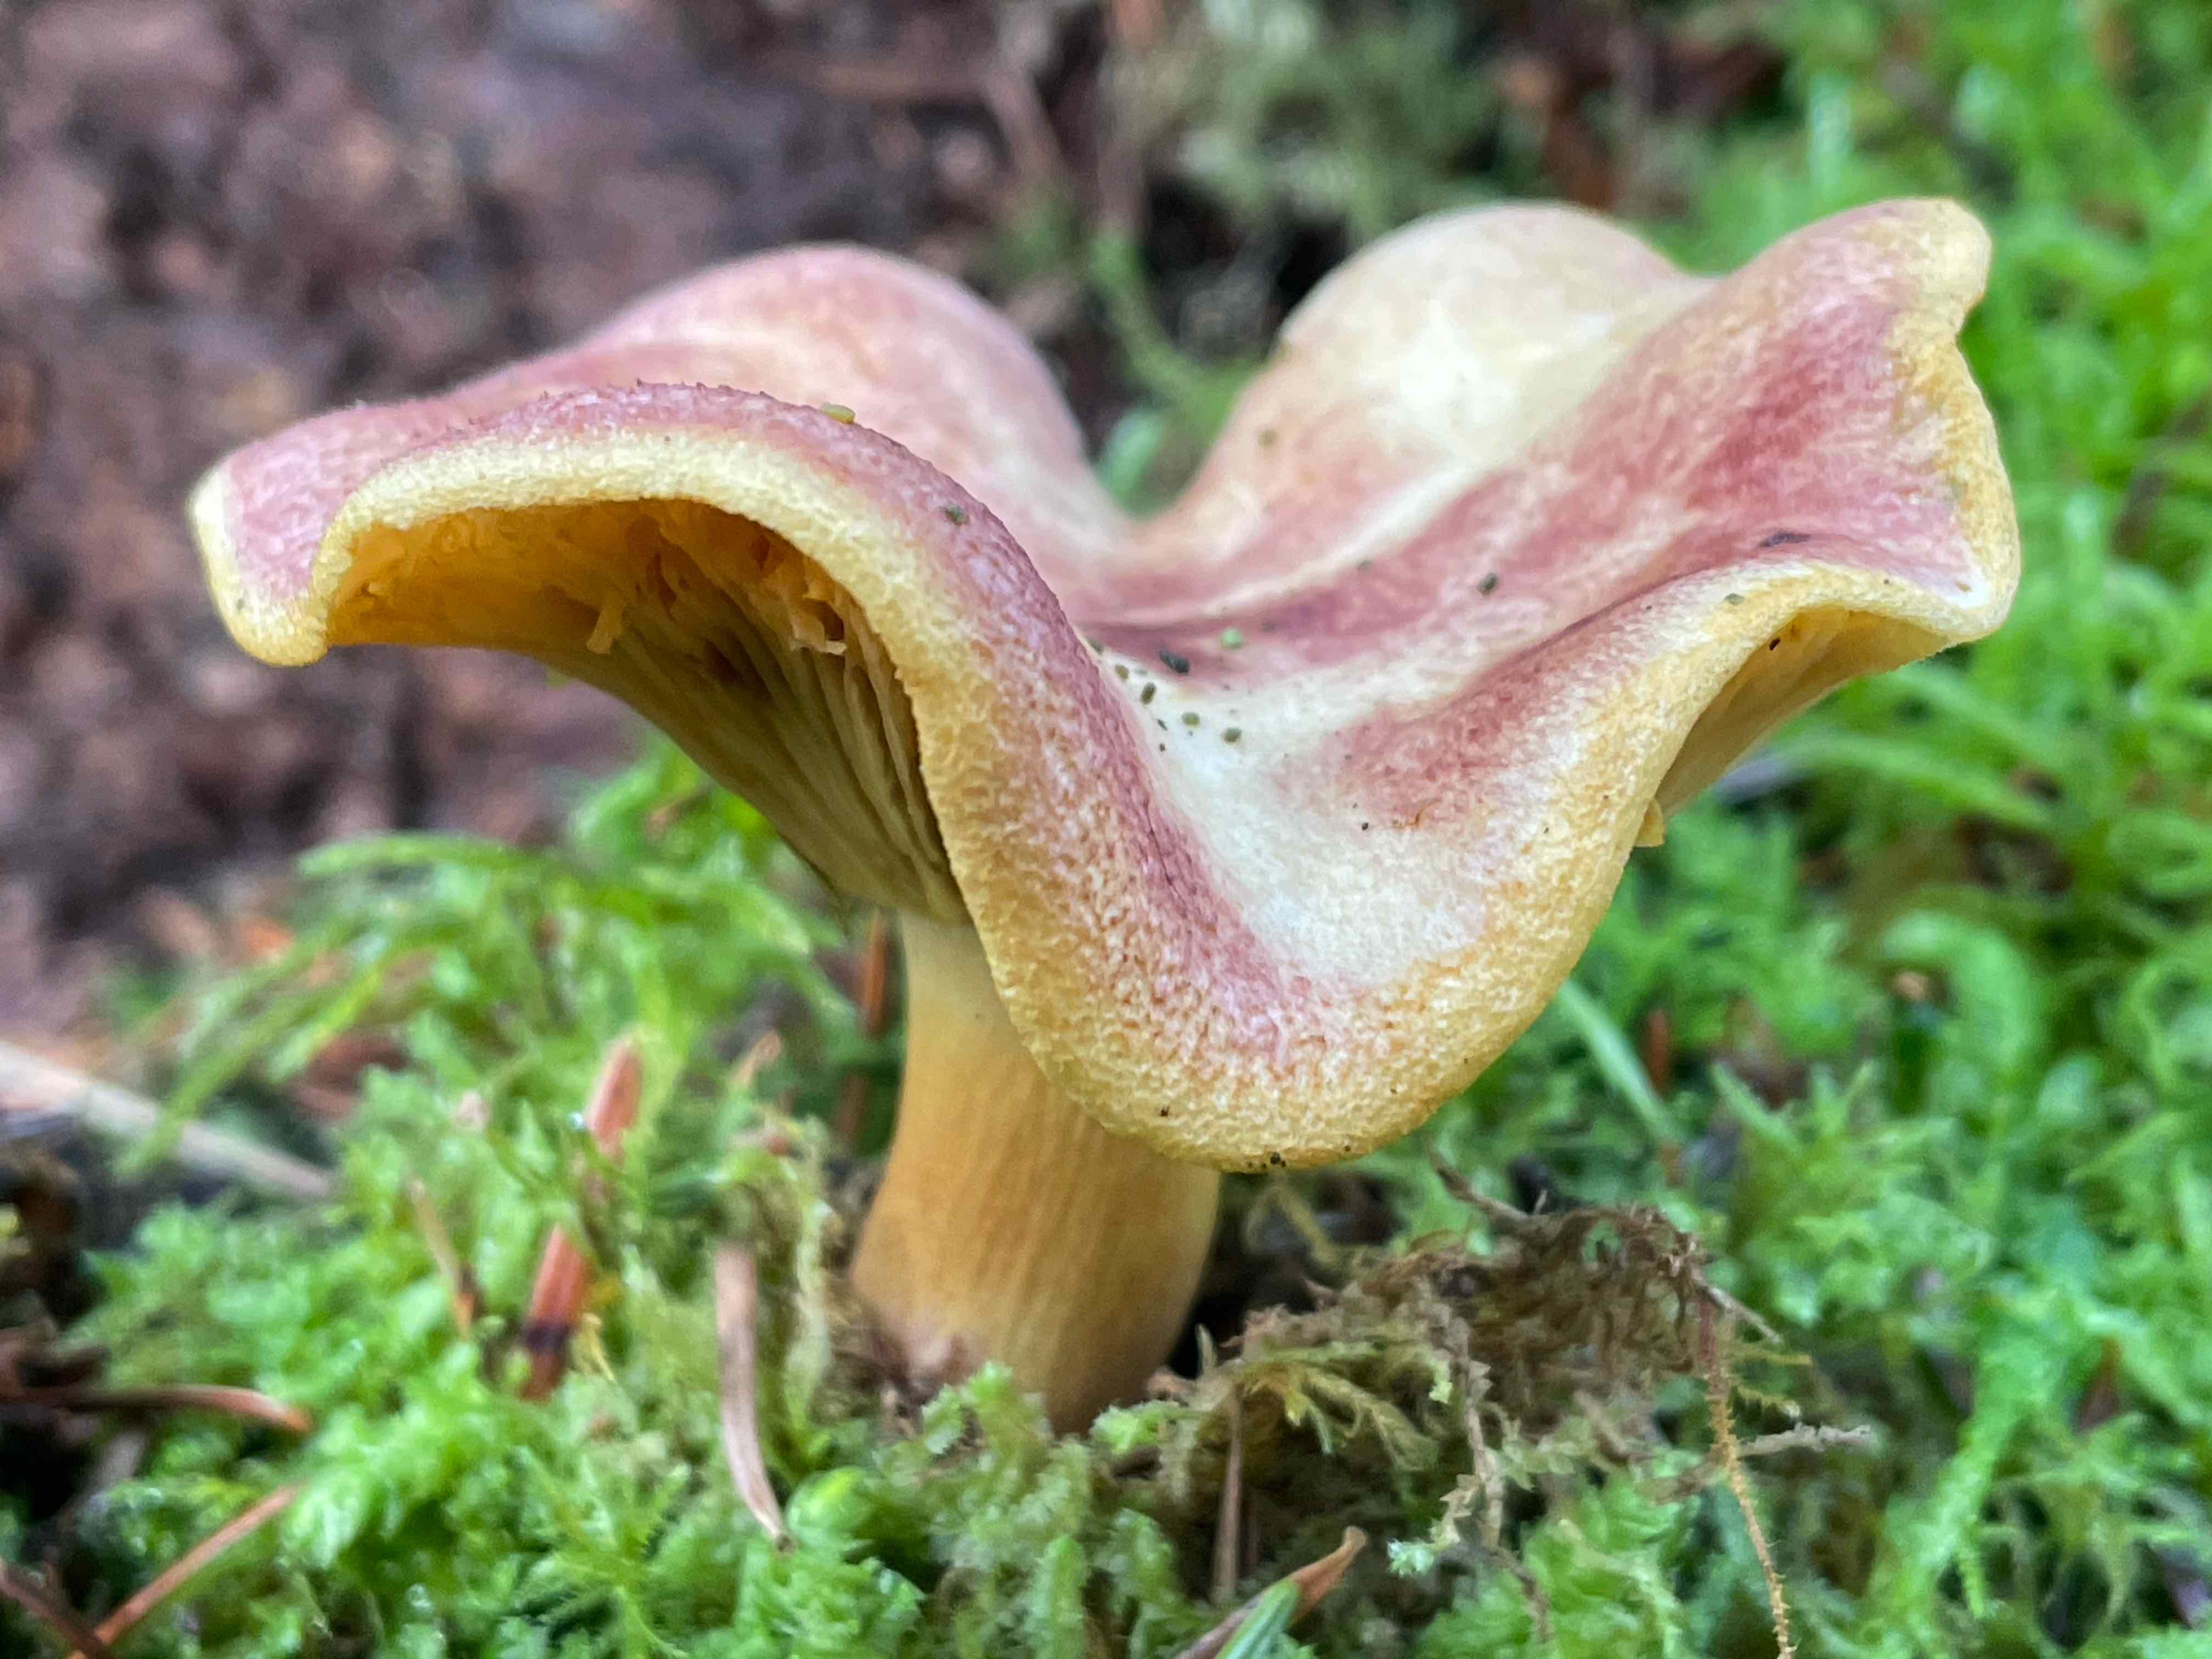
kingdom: Fungi
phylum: Basidiomycota
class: Agaricomycetes
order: Agaricales
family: Tricholomataceae
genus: Tricholomopsis
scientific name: Tricholomopsis rutilans
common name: purpur-væbnerhat
